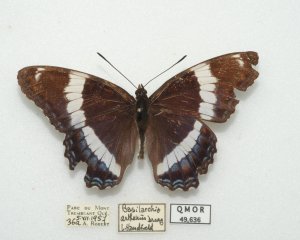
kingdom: Animalia
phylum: Arthropoda
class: Insecta
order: Lepidoptera
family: Nymphalidae
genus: Limenitis
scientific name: Limenitis arthemis
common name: Red-spotted Admiral
